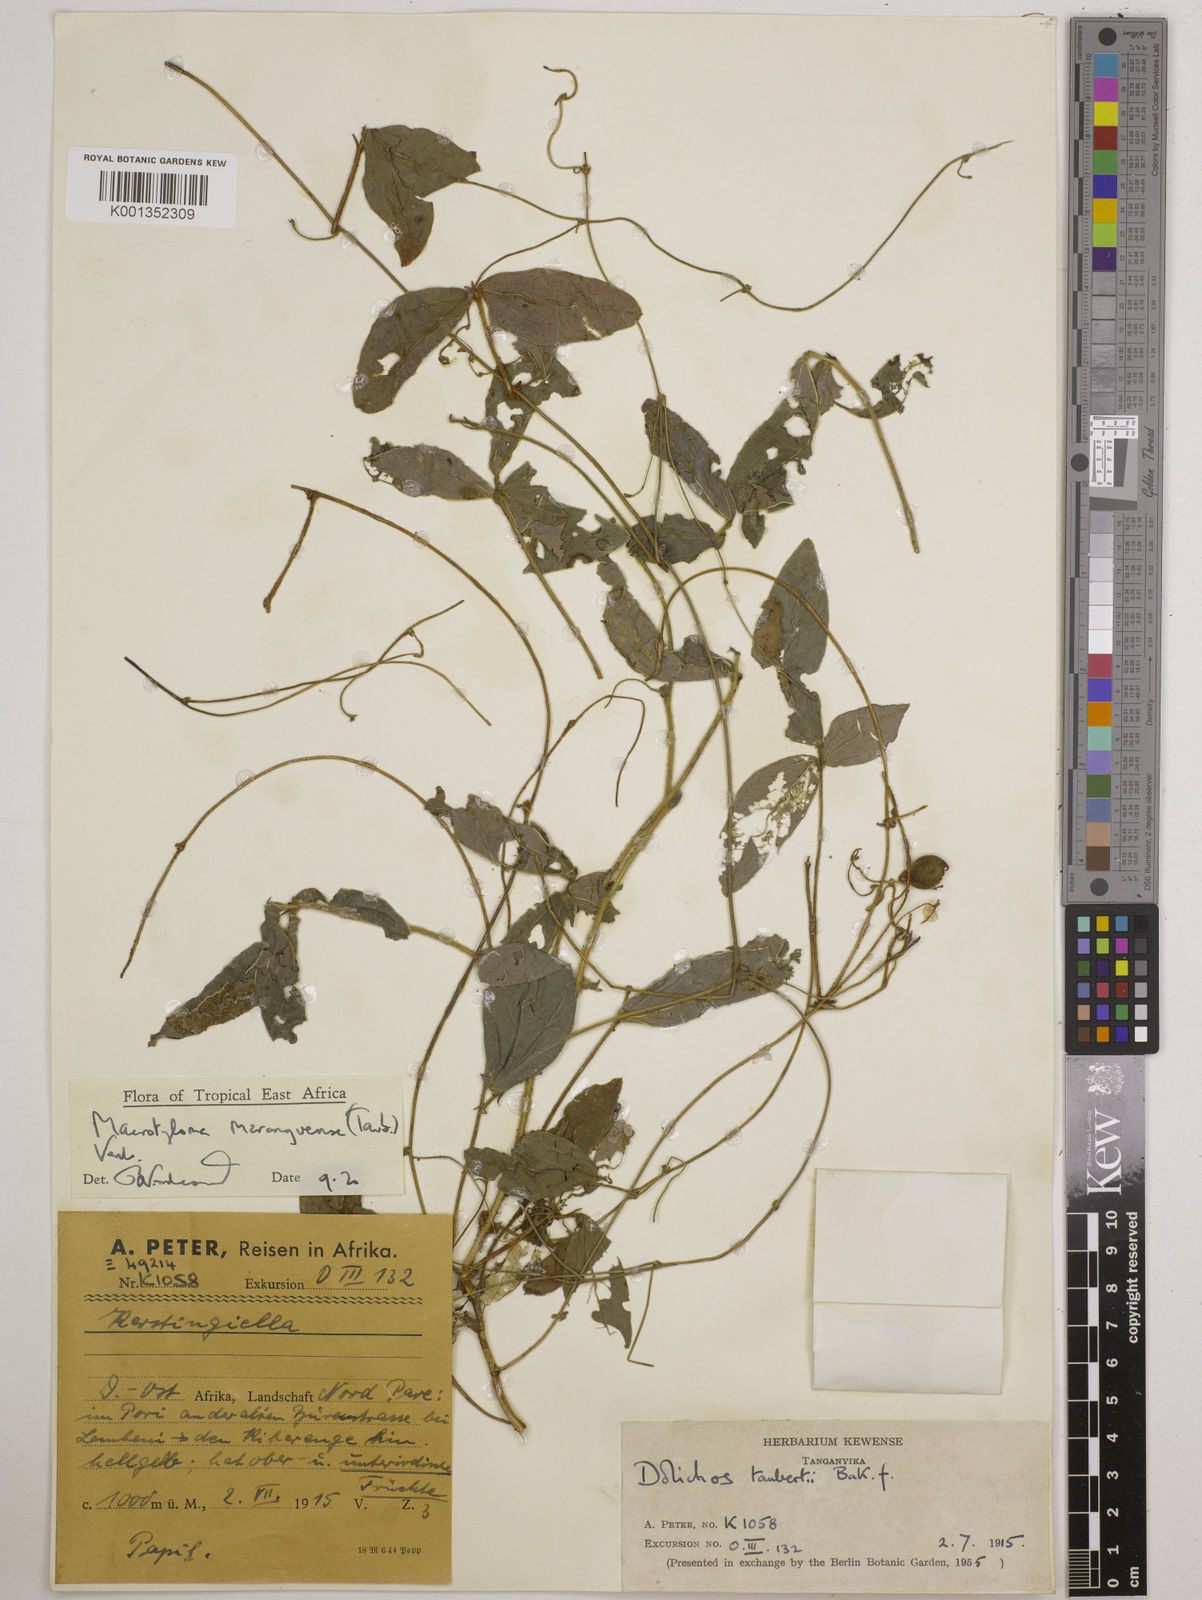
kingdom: Plantae
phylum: Tracheophyta
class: Magnoliopsida
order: Fabales
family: Fabaceae
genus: Macrotyloma
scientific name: Macrotyloma maranguense
